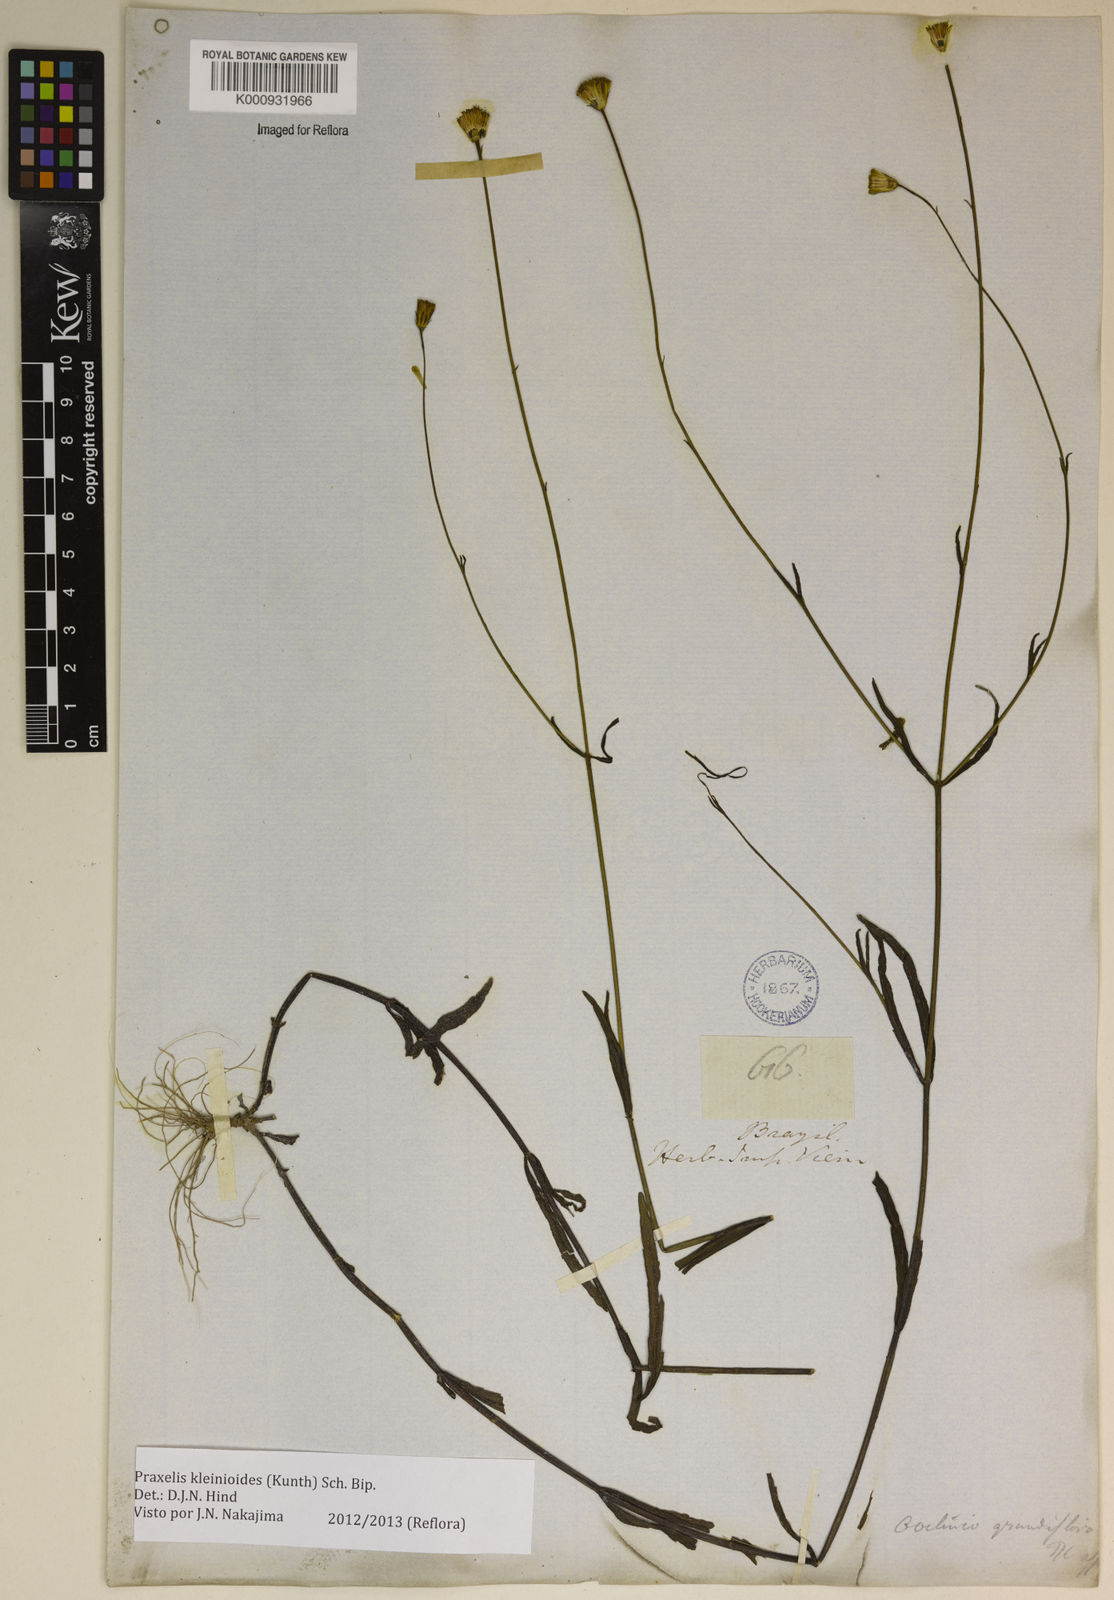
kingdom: Plantae
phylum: Tracheophyta
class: Magnoliopsida
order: Asterales
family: Asteraceae
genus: Praxelis
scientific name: Praxelis kleinioides
